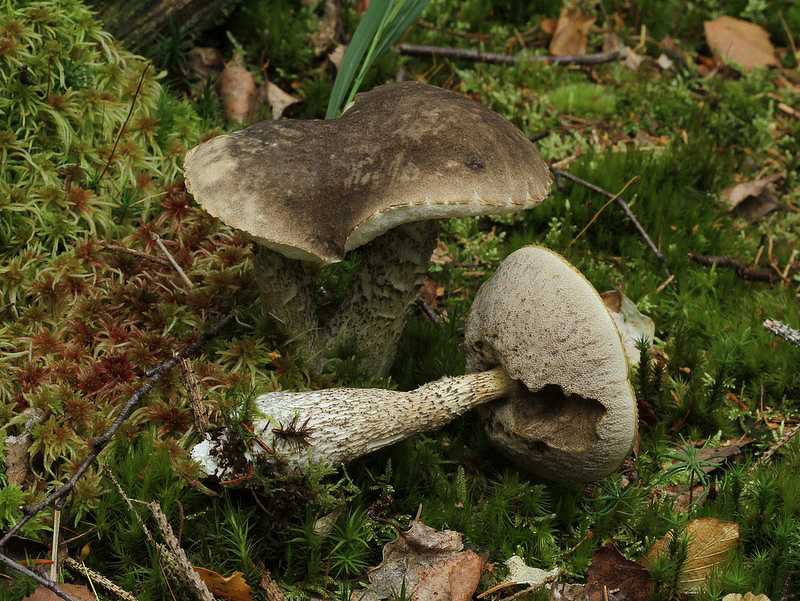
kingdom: Fungi
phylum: Basidiomycota
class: Agaricomycetes
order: Boletales
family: Boletaceae
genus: Leccinum
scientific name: Leccinum variicolor
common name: flammet skælrørhat
